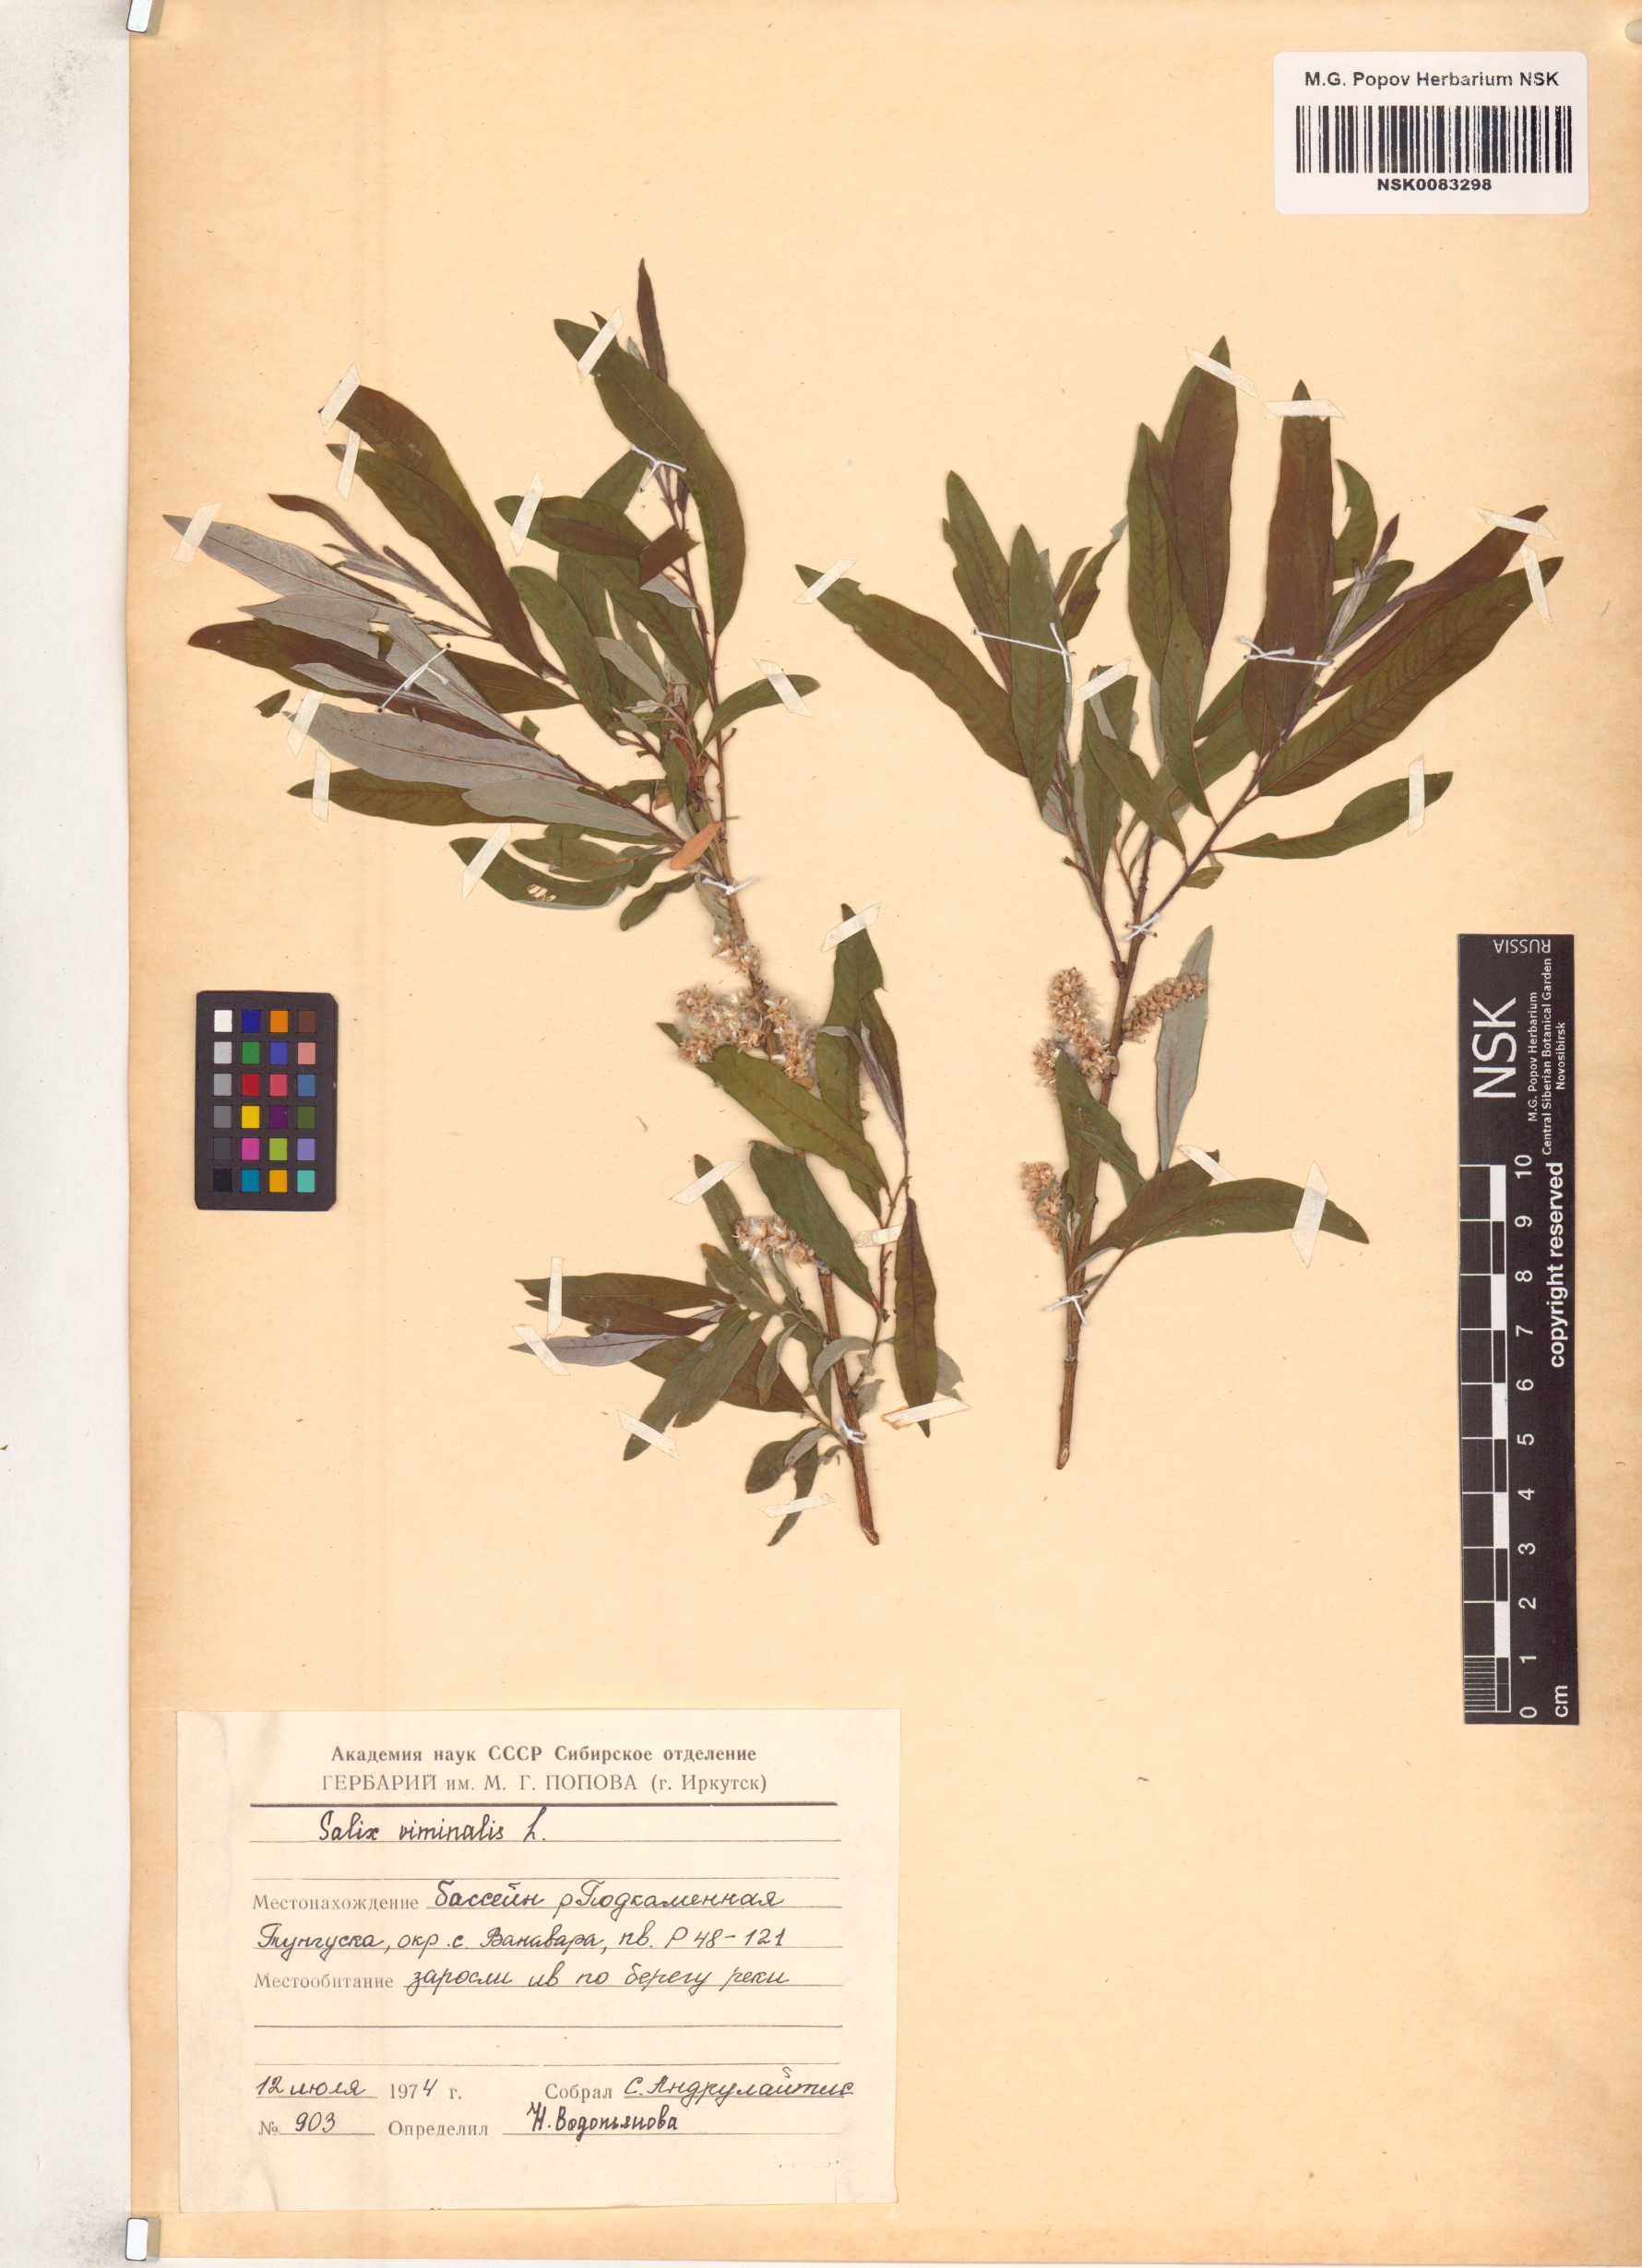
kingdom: Plantae
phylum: Tracheophyta
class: Magnoliopsida
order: Malpighiales
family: Salicaceae
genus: Salix
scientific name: Salix viminalis
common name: Osier
